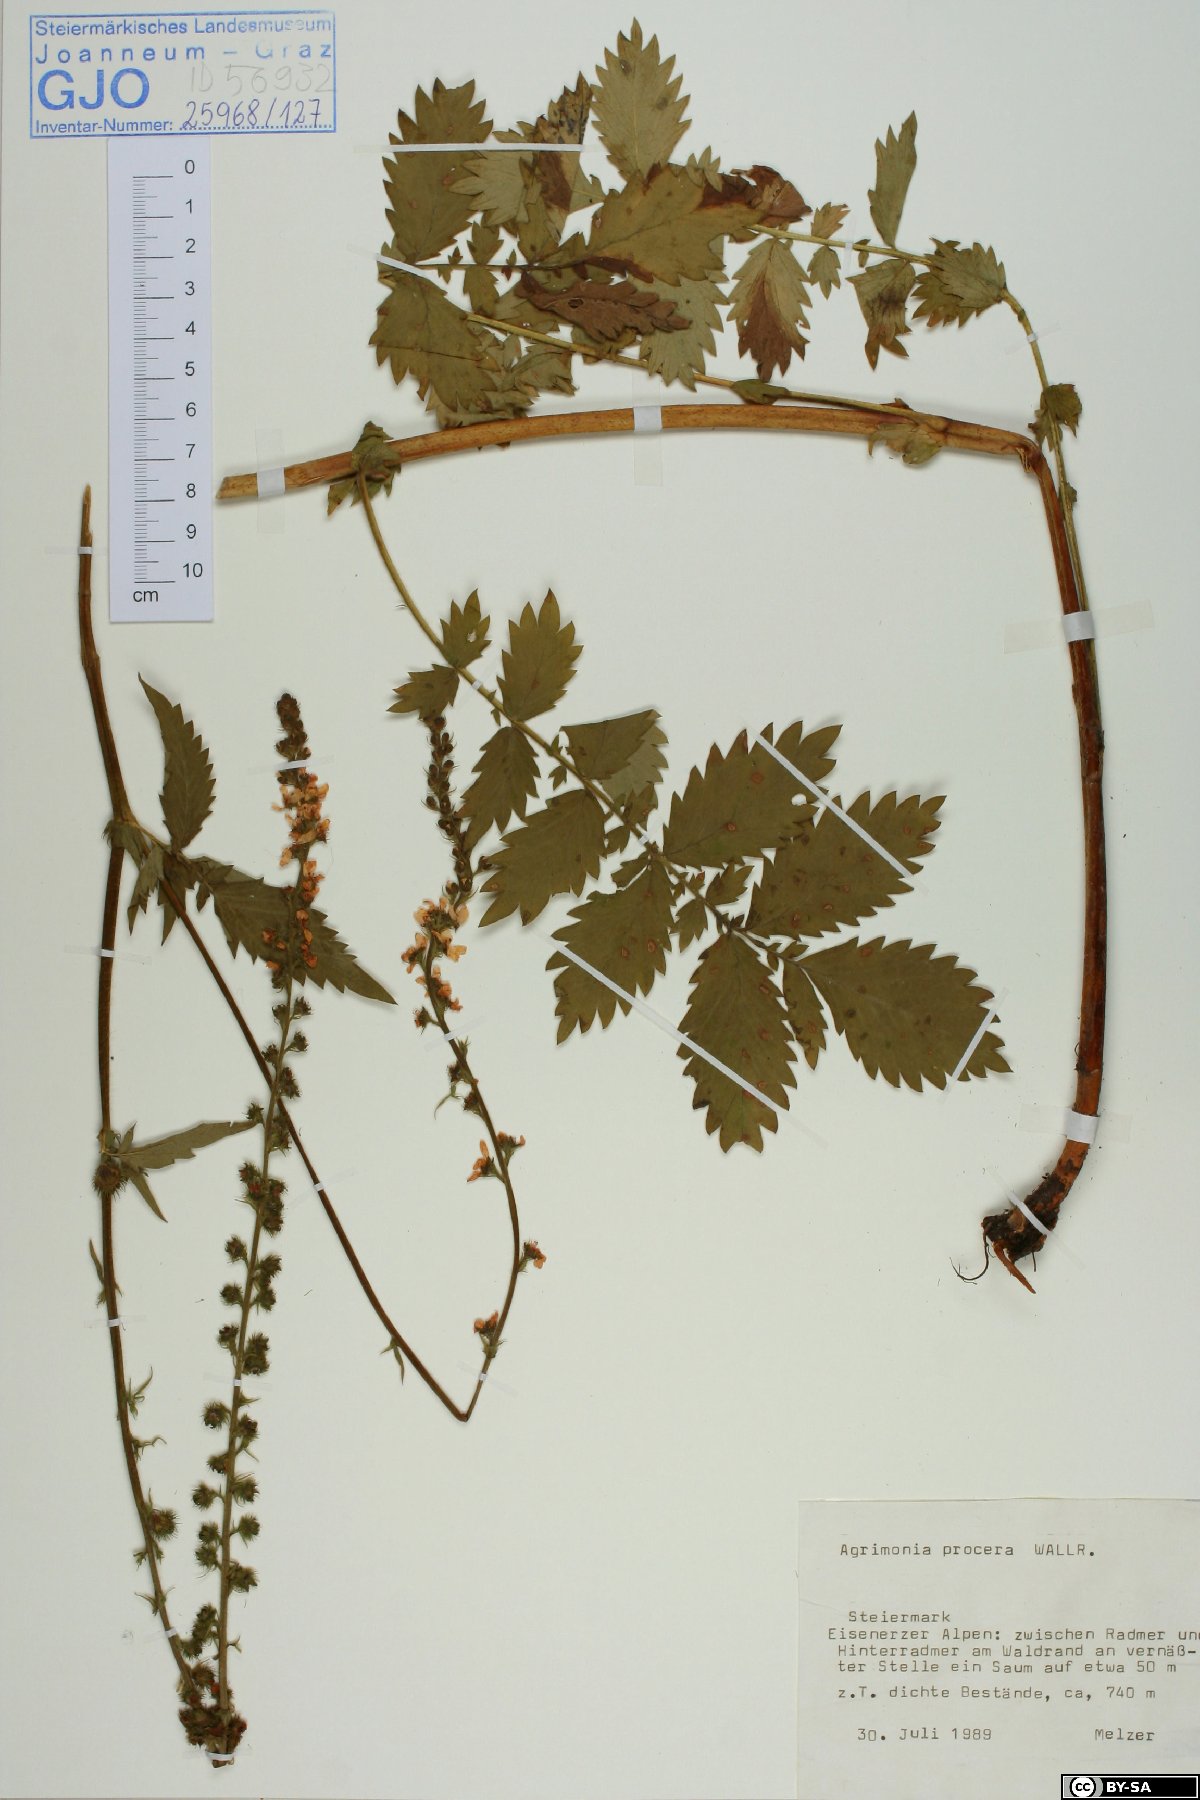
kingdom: Plantae
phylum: Tracheophyta
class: Magnoliopsida
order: Rosales
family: Rosaceae
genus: Agrimonia
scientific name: Agrimonia procera
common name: Fragrant agrimony
